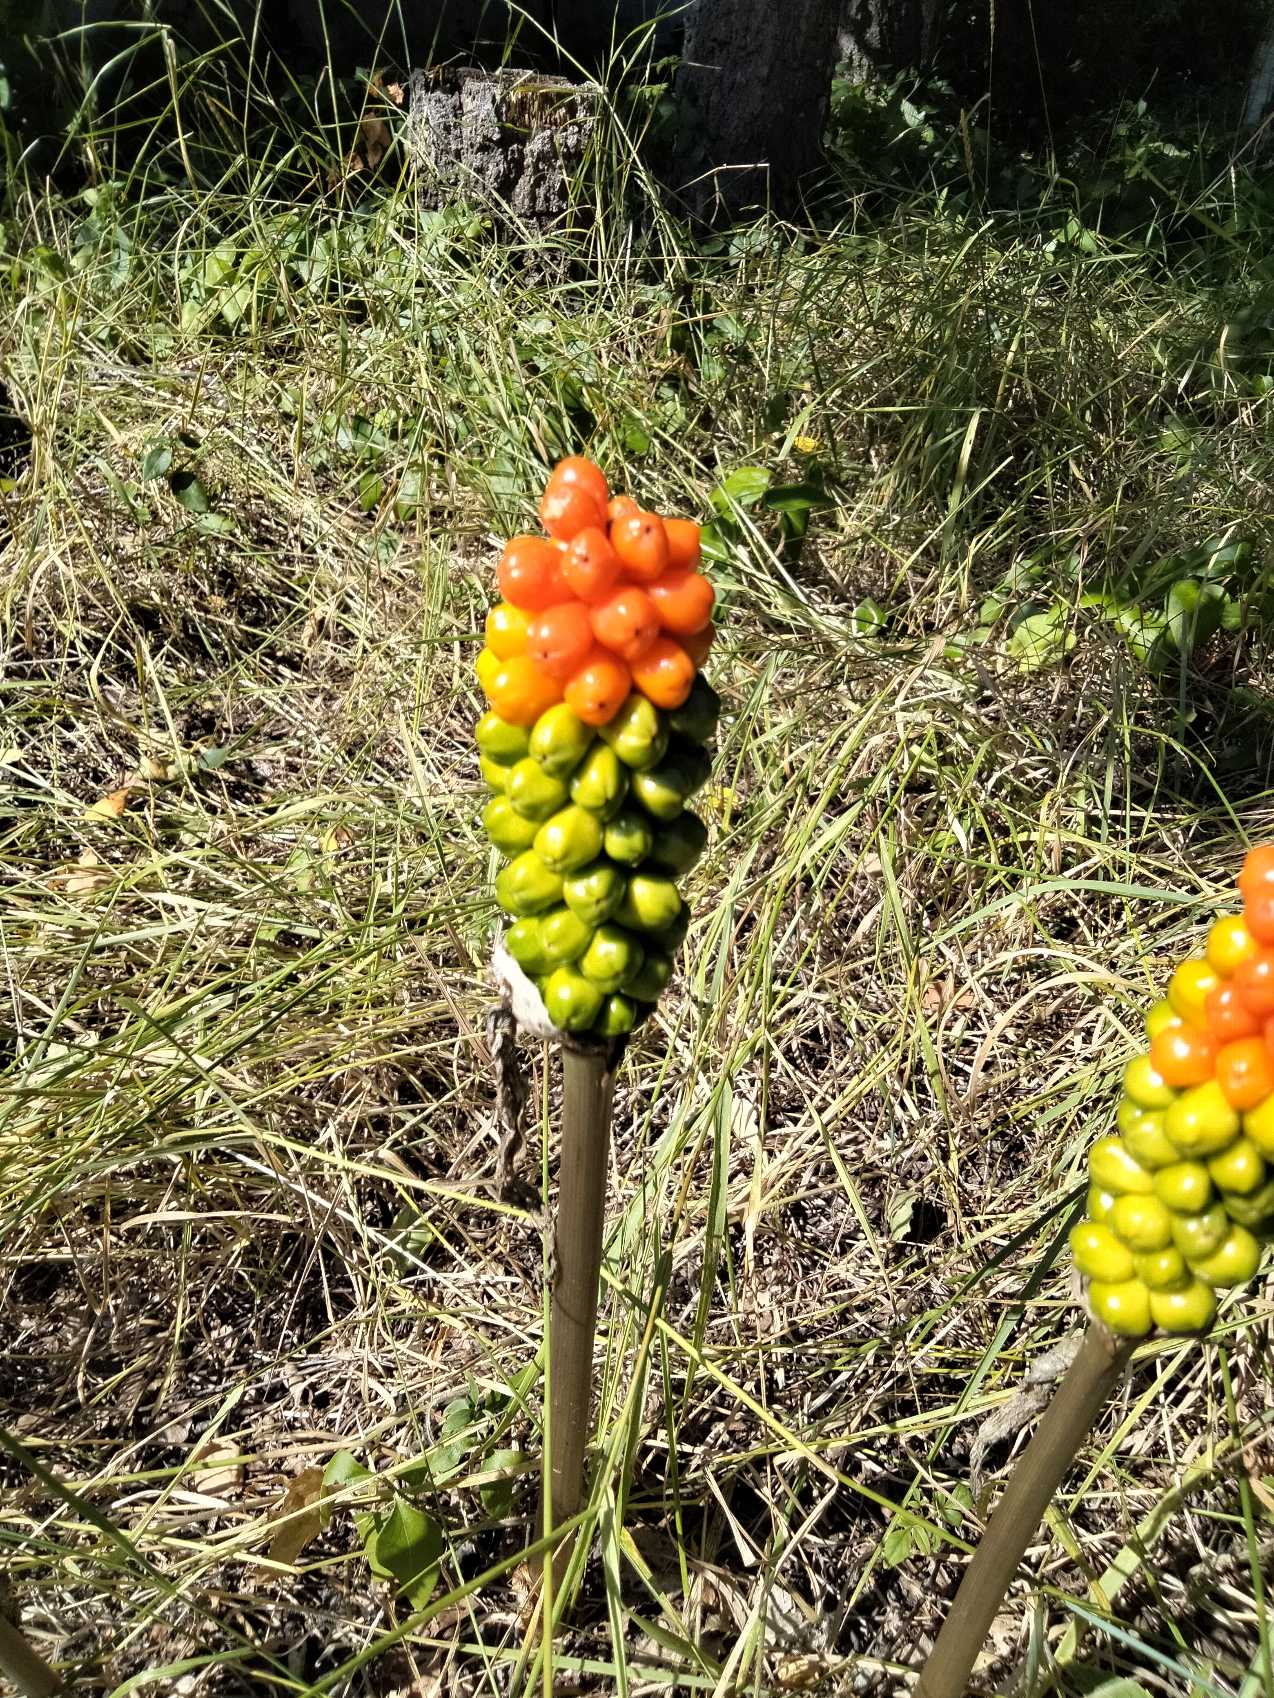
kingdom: Plantae
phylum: Tracheophyta
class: Liliopsida
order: Alismatales
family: Araceae
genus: Arum
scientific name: Arum
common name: Arumslægten
